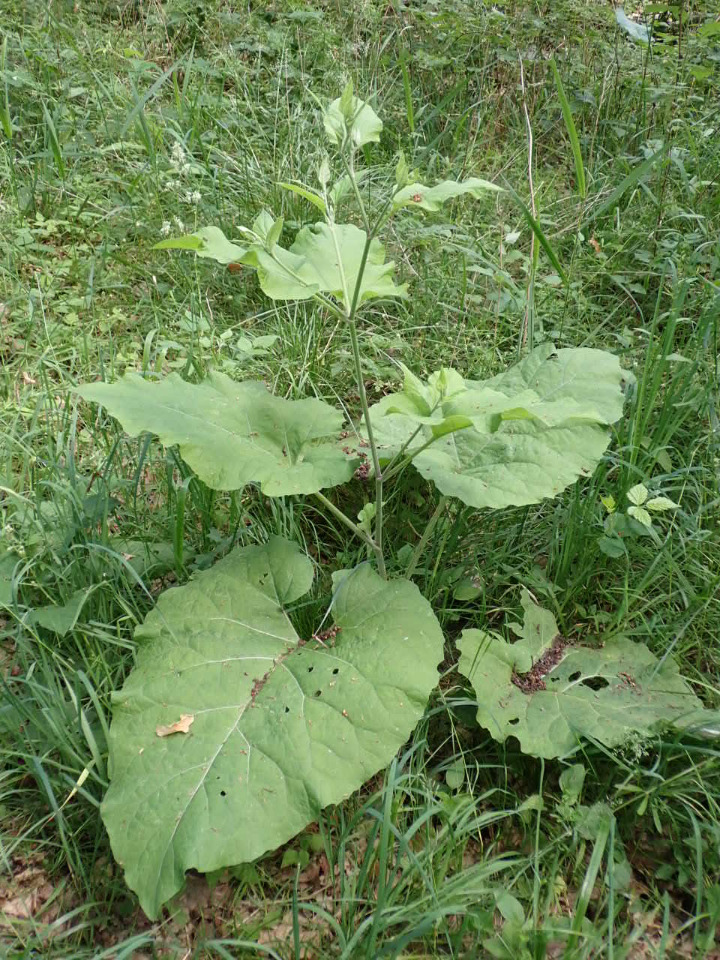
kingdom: Plantae
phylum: Tracheophyta
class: Magnoliopsida
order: Asterales
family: Asteraceae
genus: Arctium
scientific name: Arctium nemorosum
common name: Skov-burre
